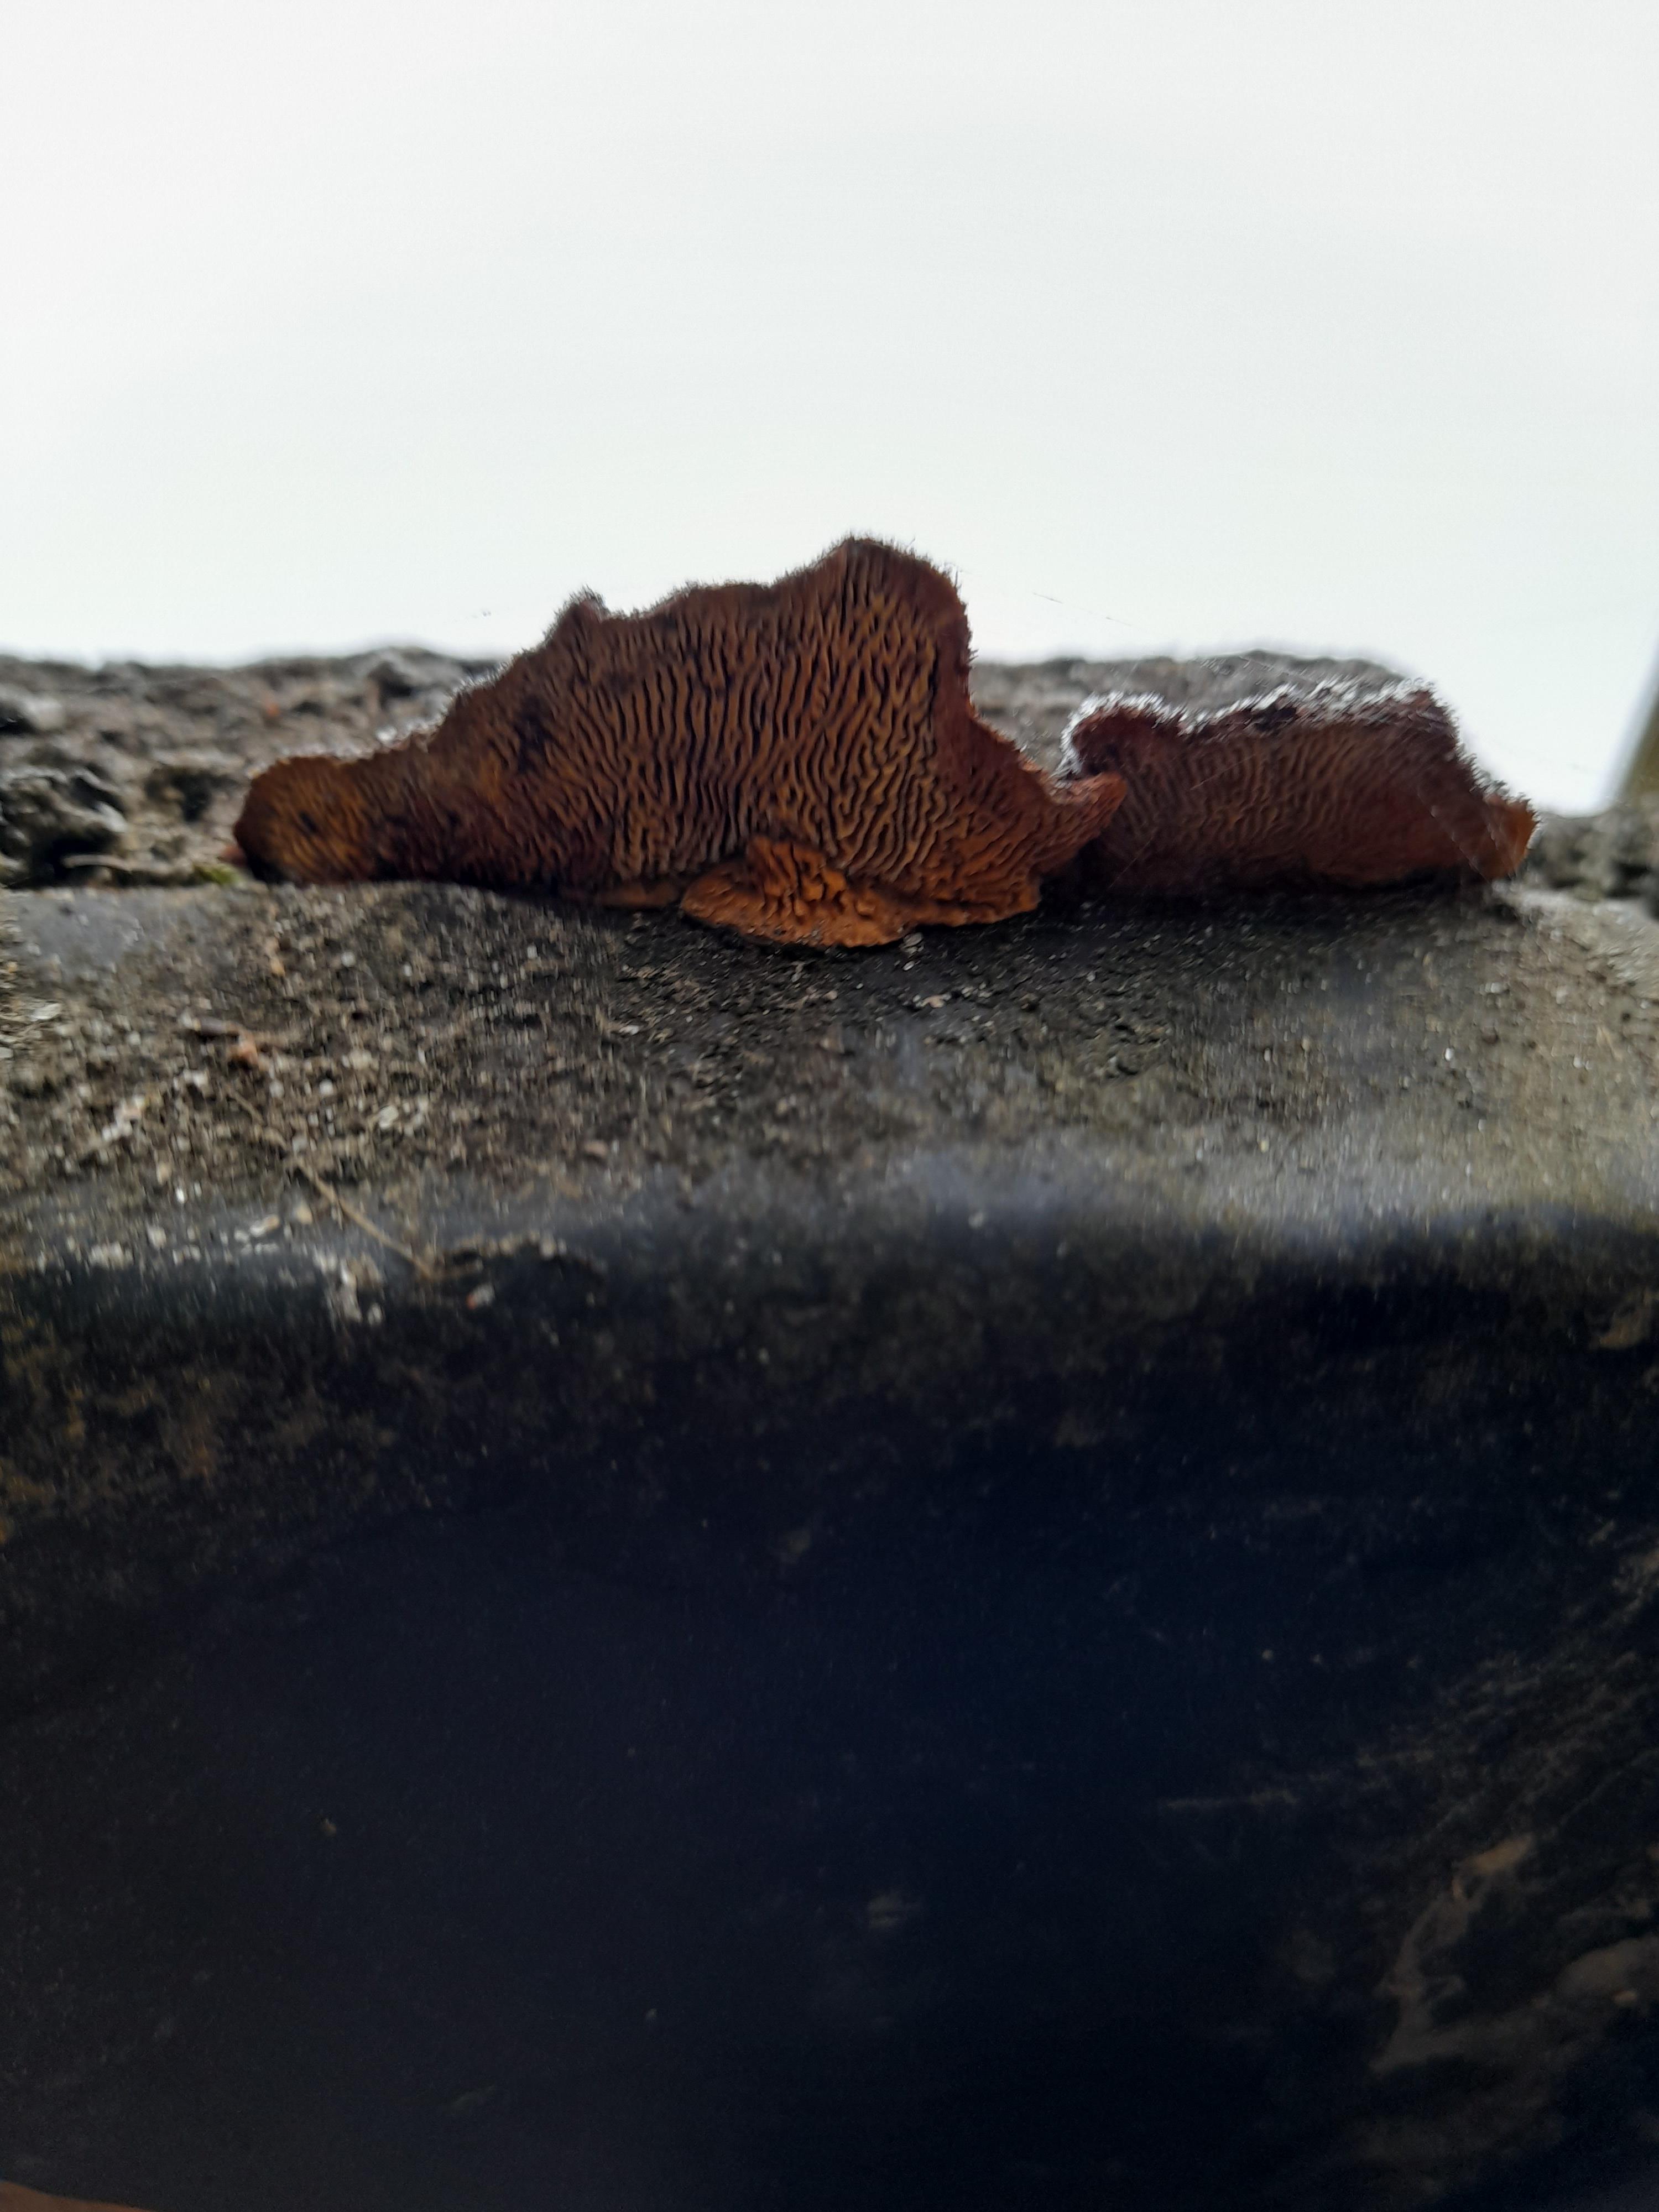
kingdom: Fungi
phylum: Basidiomycota
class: Agaricomycetes
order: Gloeophyllales
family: Gloeophyllaceae
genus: Gloeophyllum
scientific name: Gloeophyllum sepiarium
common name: fyrre-korkhat
